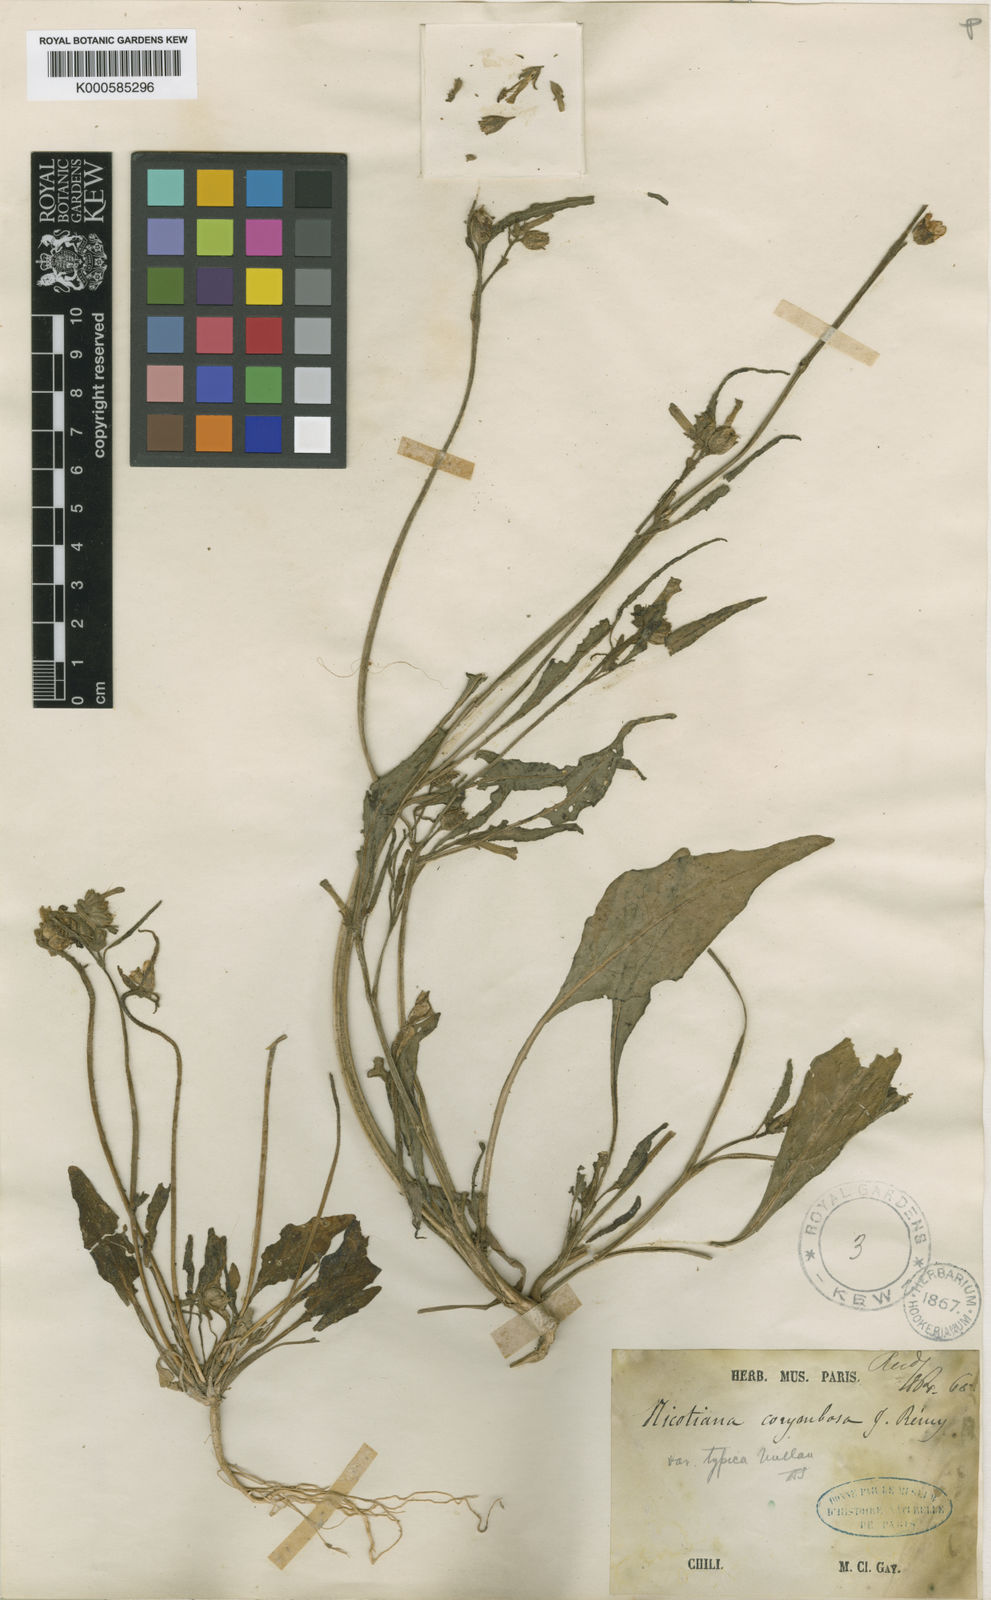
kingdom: Plantae
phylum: Tracheophyta
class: Magnoliopsida
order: Solanales
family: Solanaceae
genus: Nicotiana
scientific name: Nicotiana
